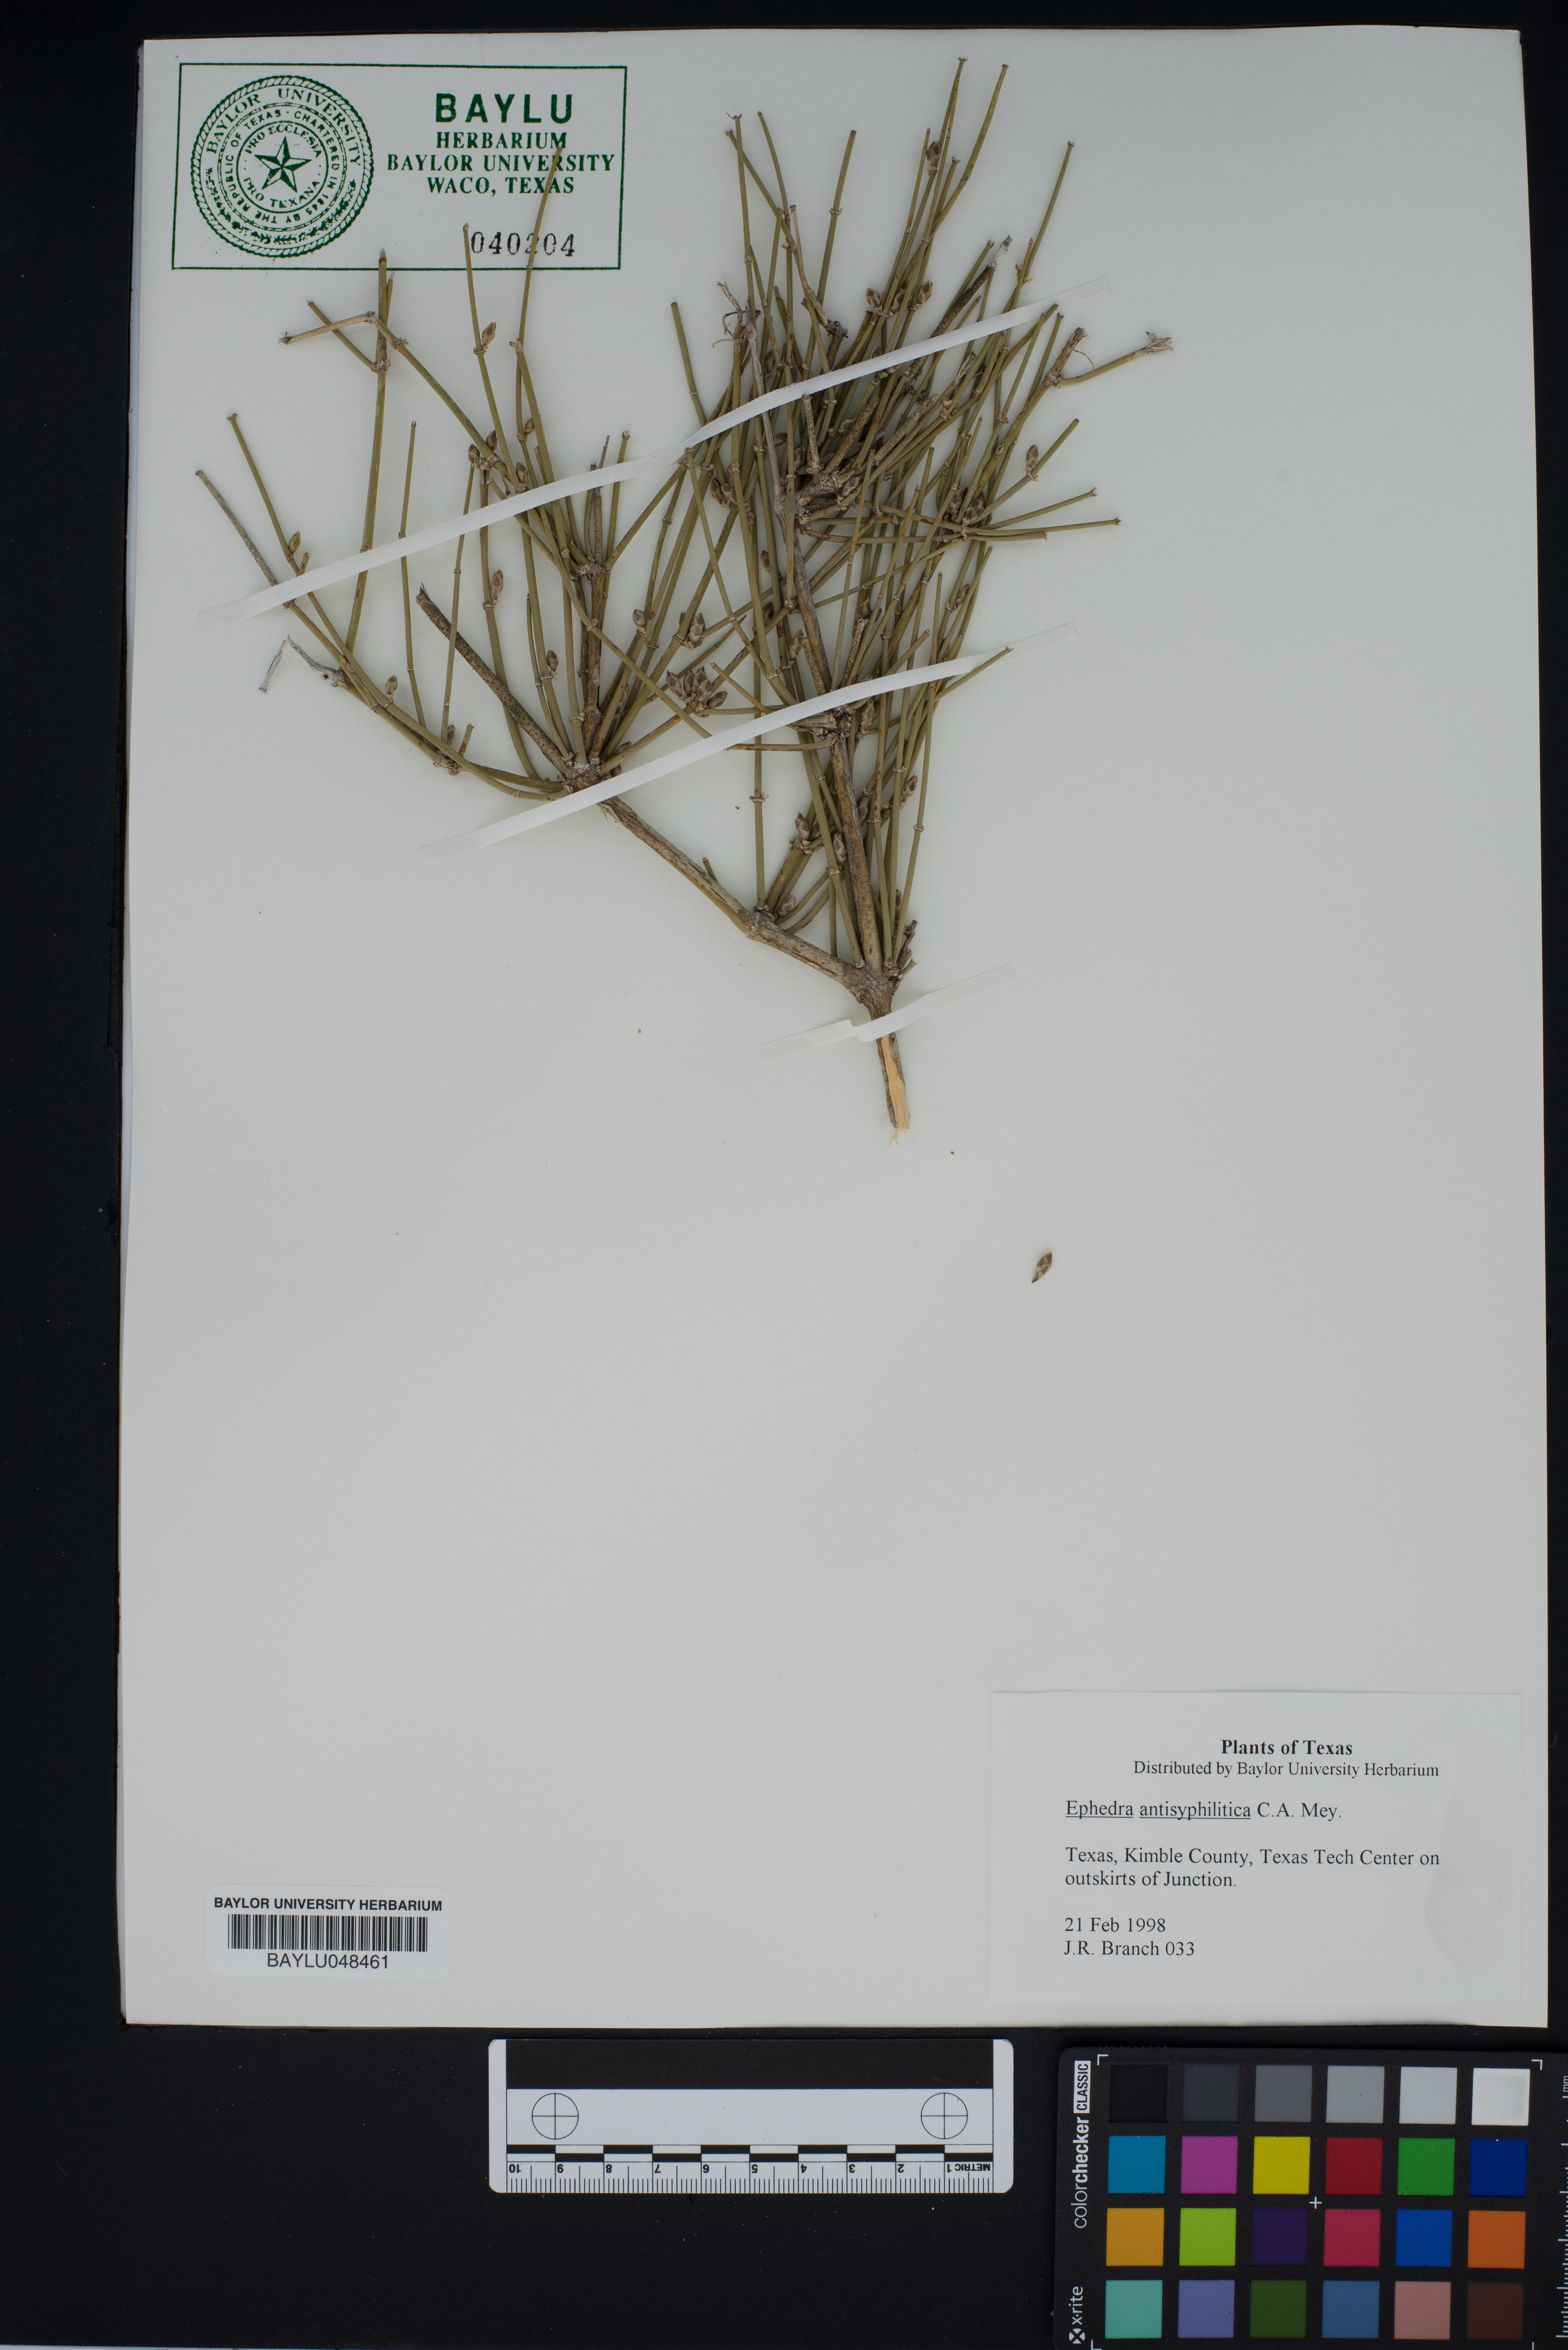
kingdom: Plantae
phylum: Tracheophyta
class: Gnetopsida
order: Ephedrales
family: Ephedraceae
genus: Ephedra
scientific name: Ephedra antisyphilitica
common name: Clipweed
